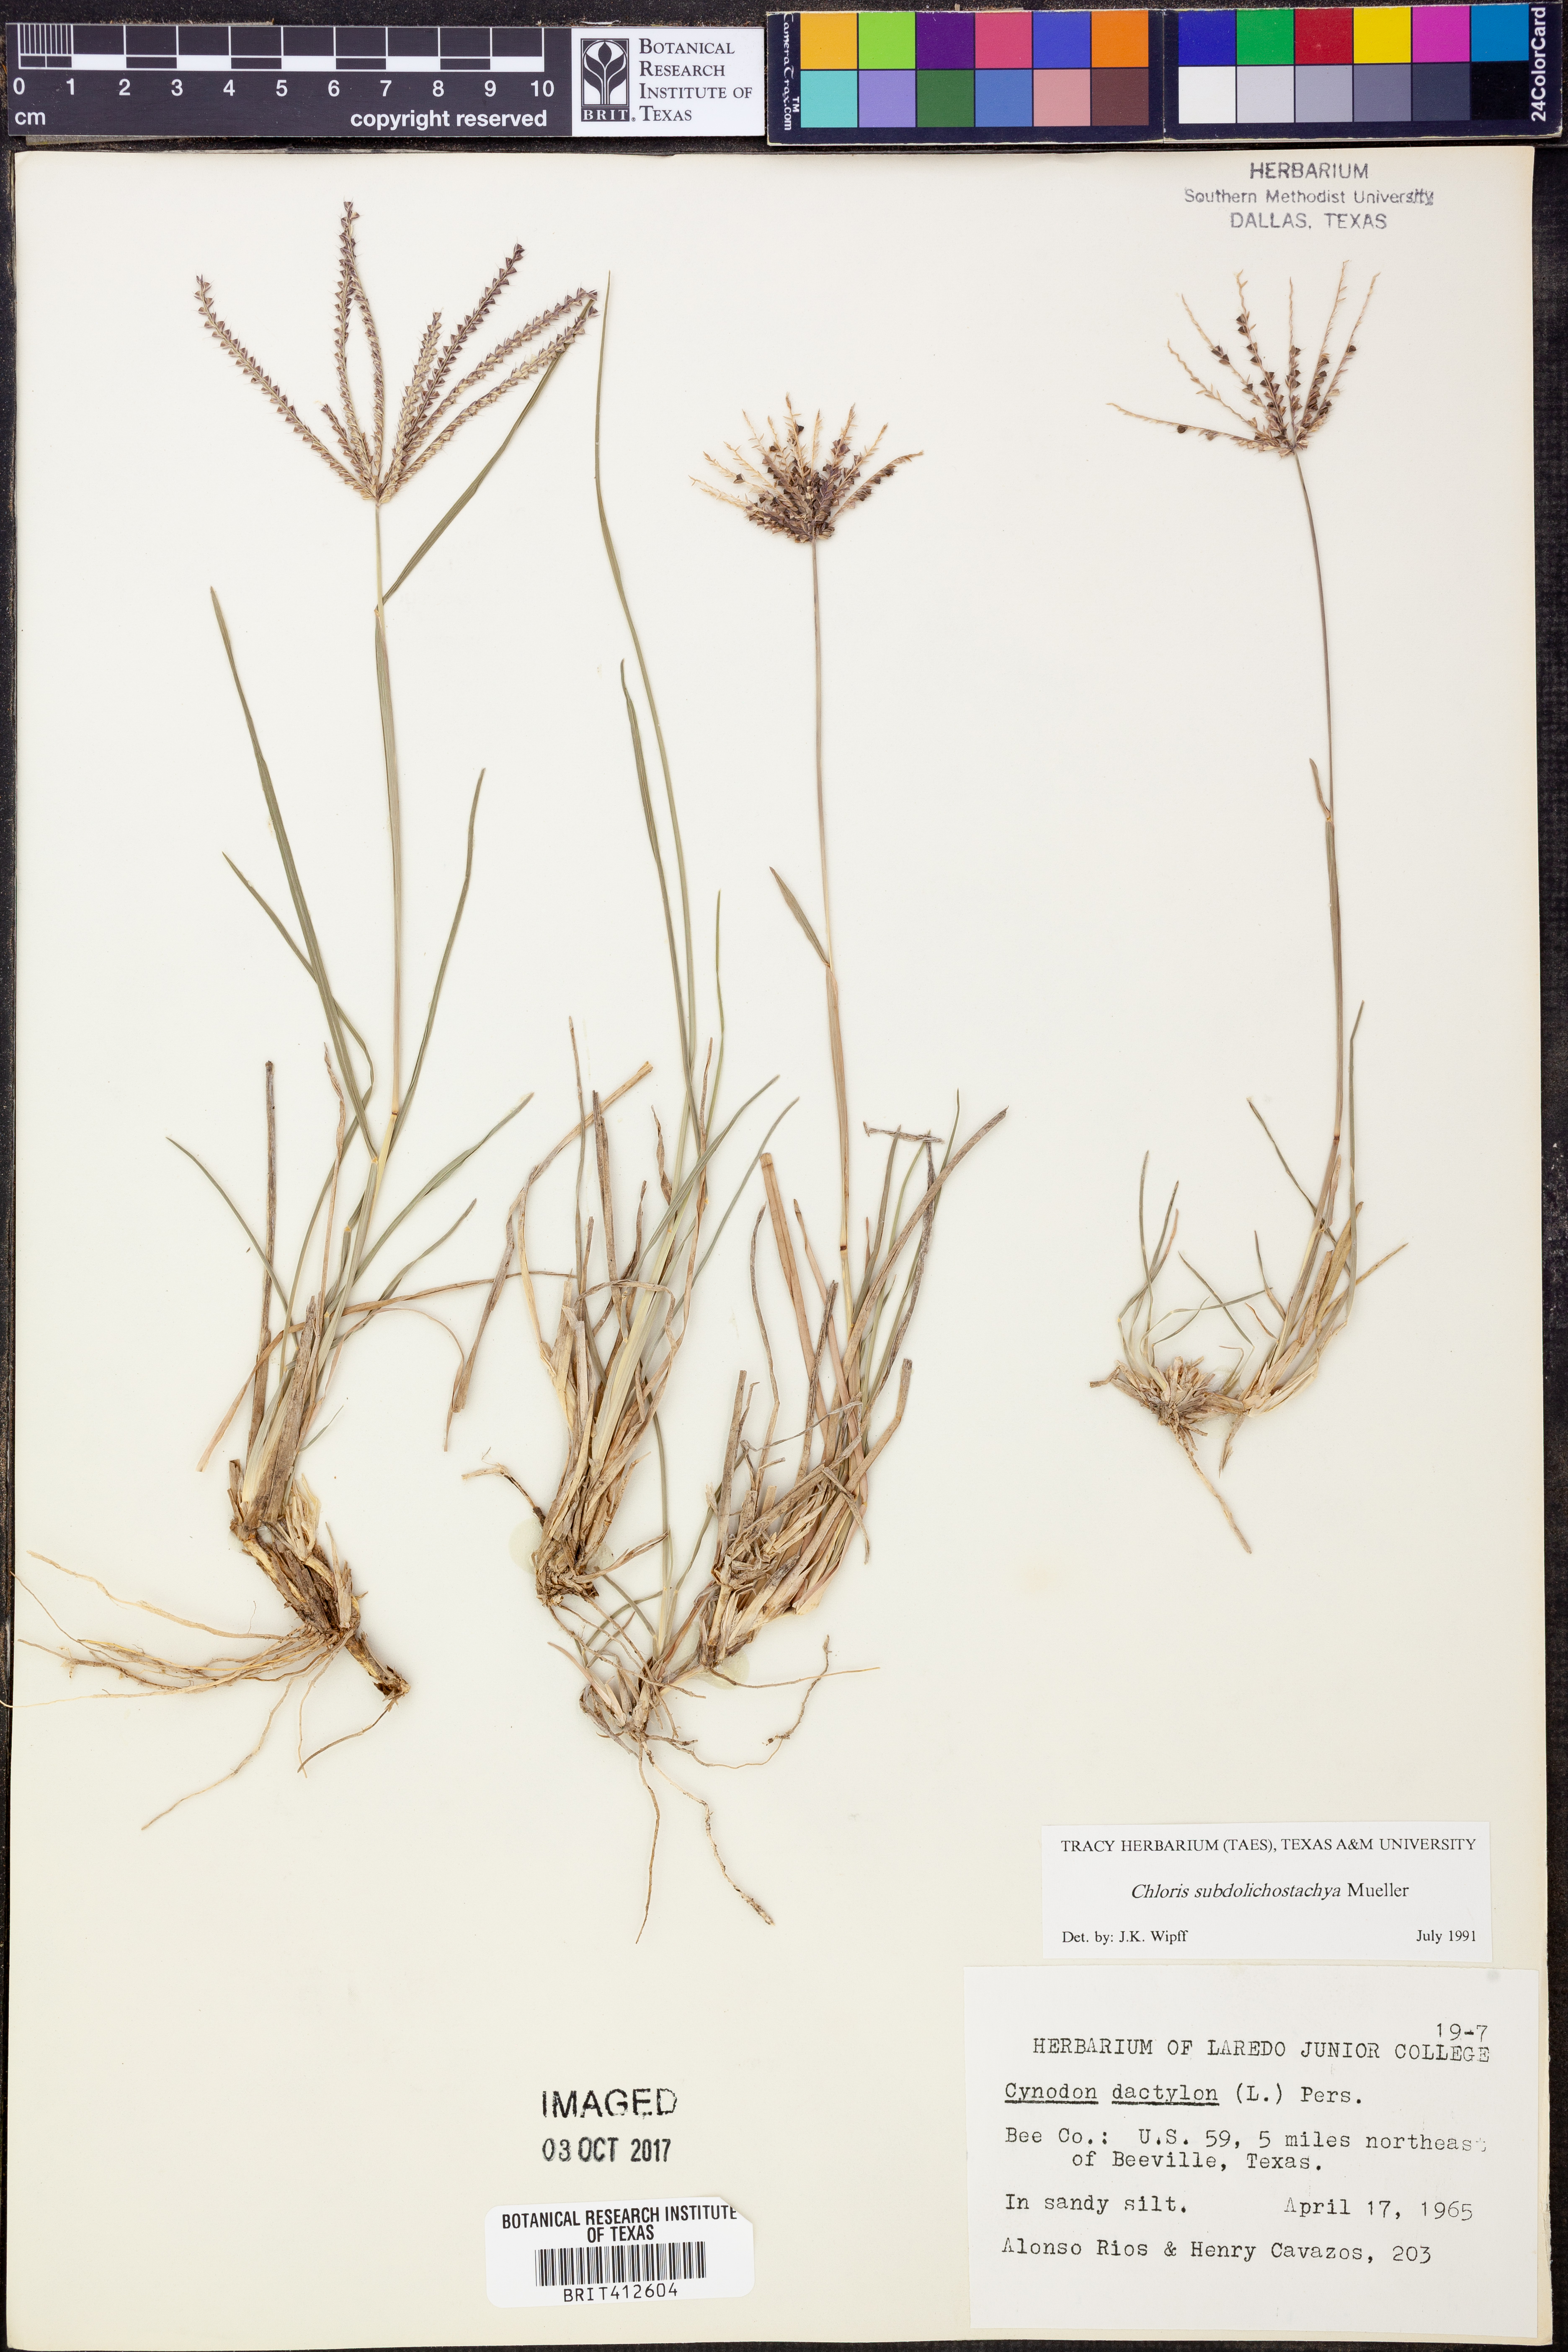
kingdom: Plantae
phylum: Tracheophyta
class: Liliopsida
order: Poales
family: Poaceae
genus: Chloris
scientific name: Chloris subdolichostachya
